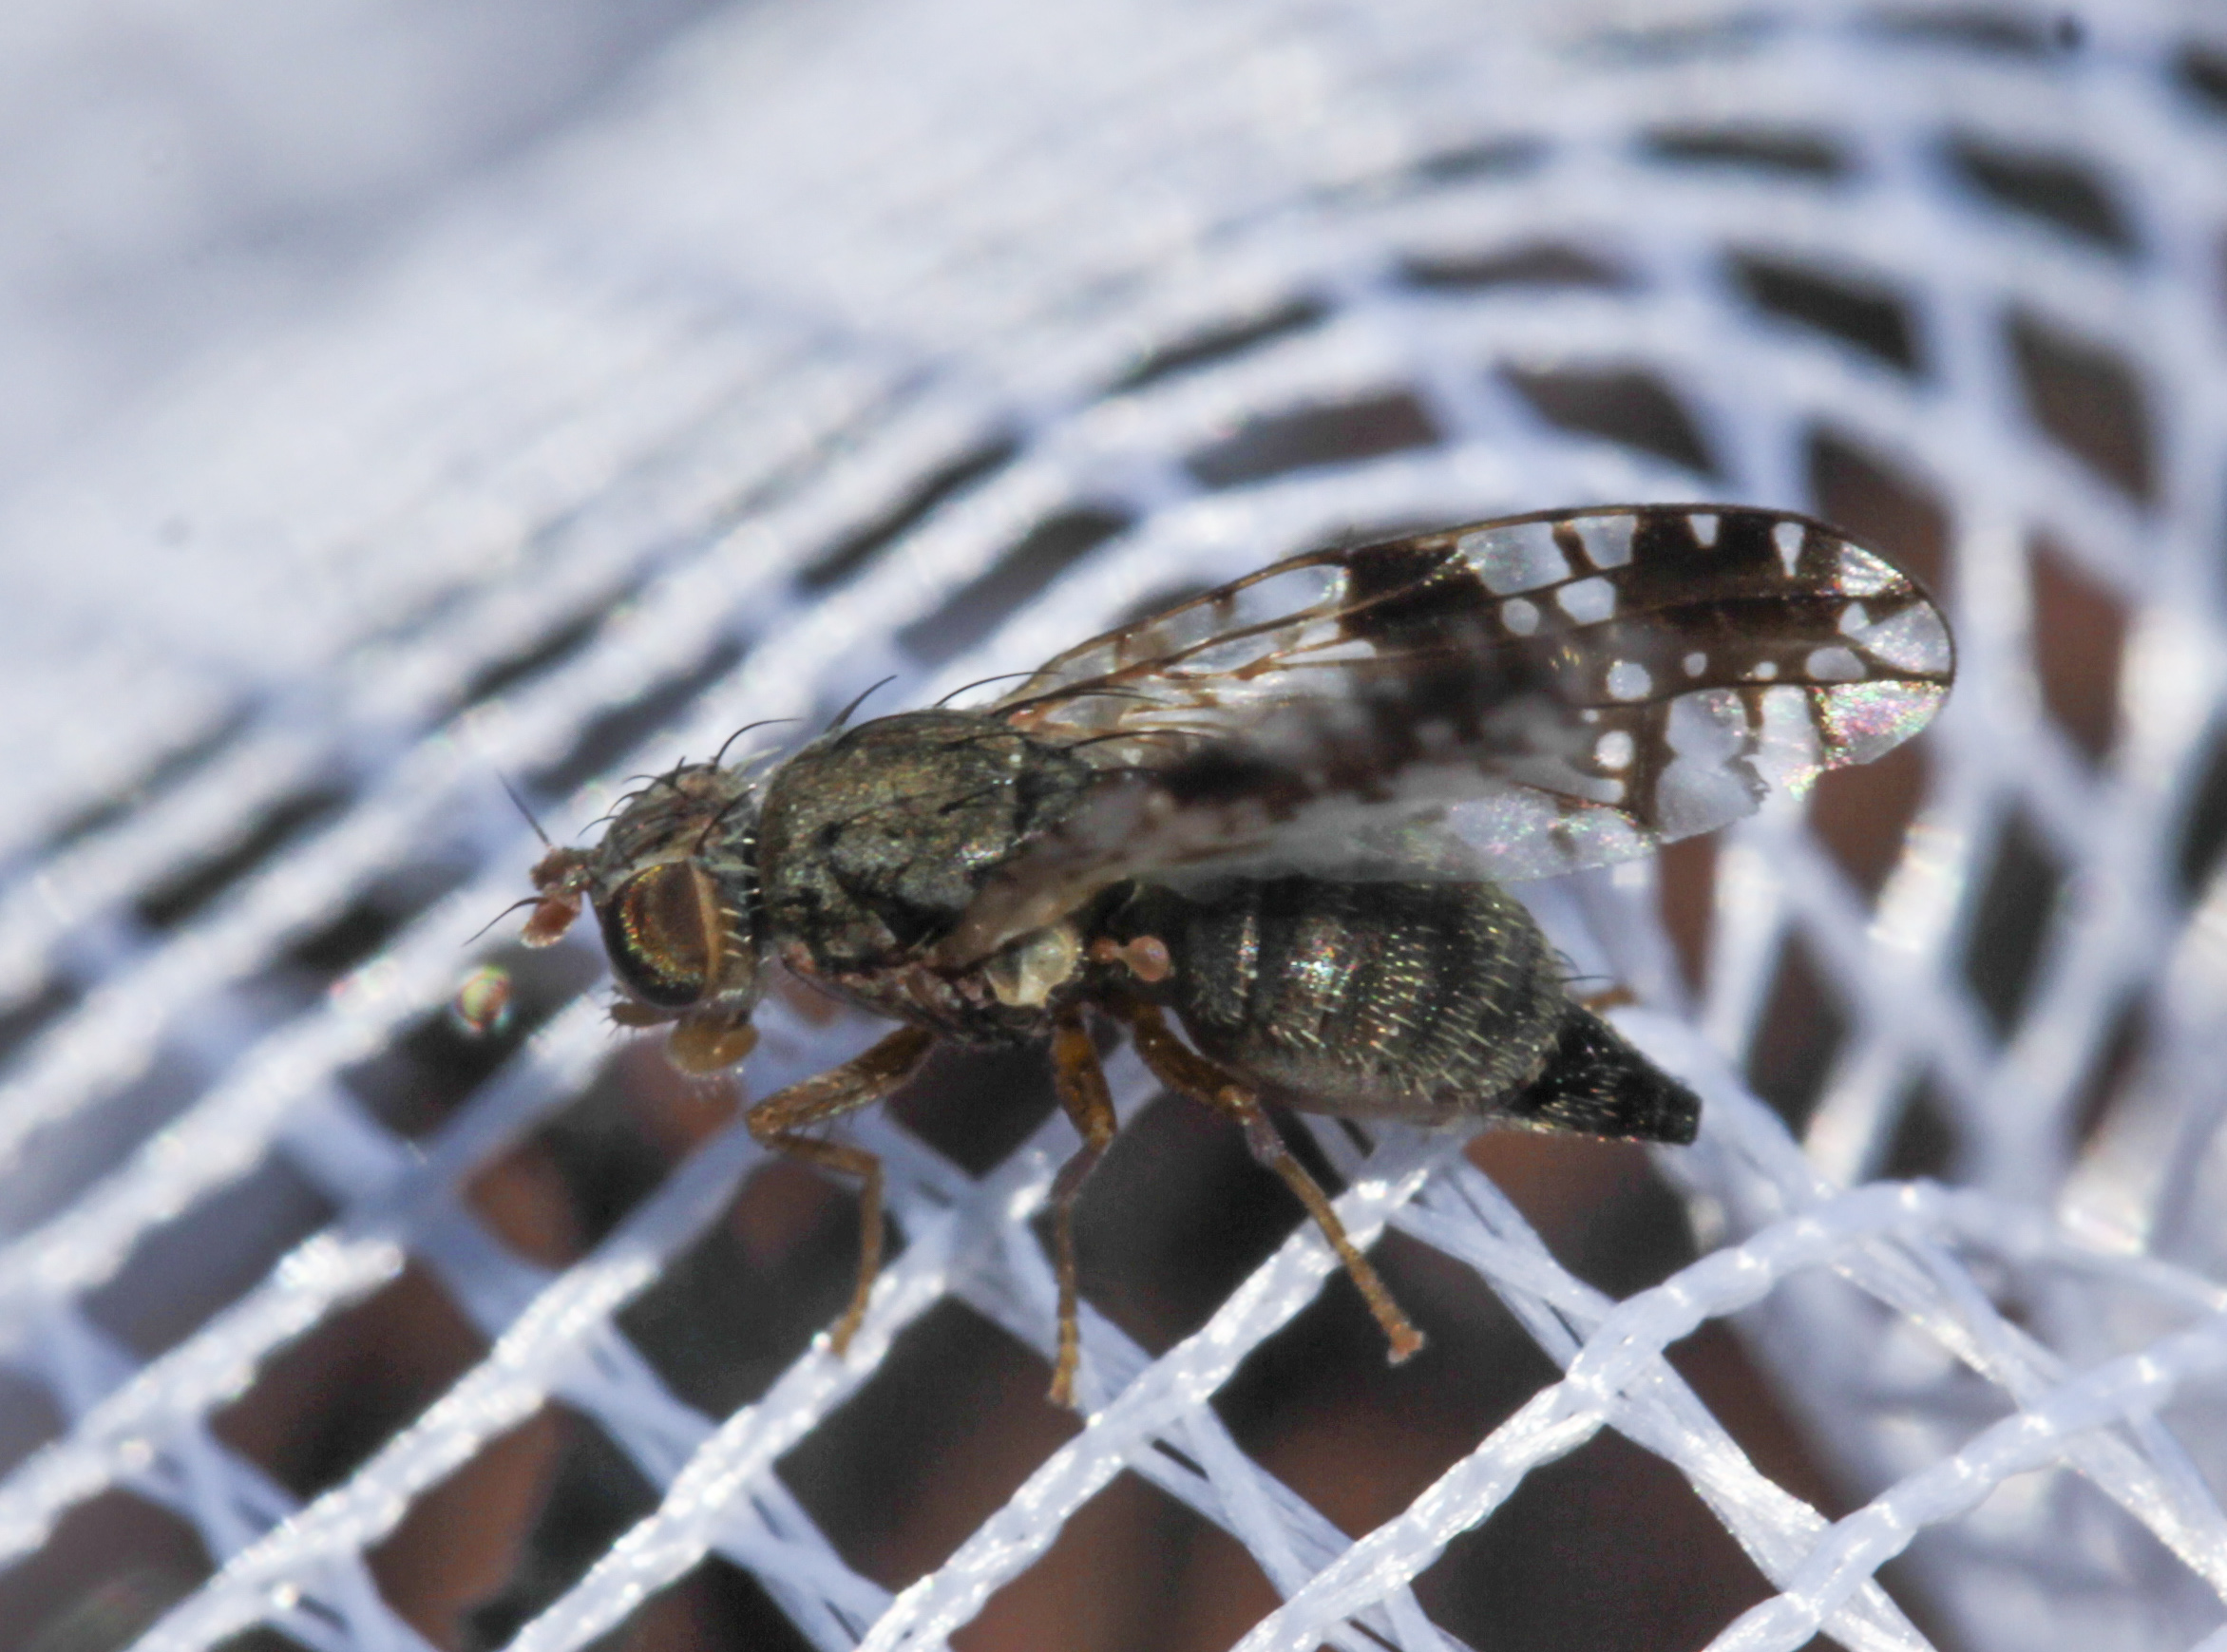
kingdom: Animalia
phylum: Arthropoda
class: Insecta
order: Diptera
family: Tephritidae
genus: Tephritis
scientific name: Tephritis neesii
